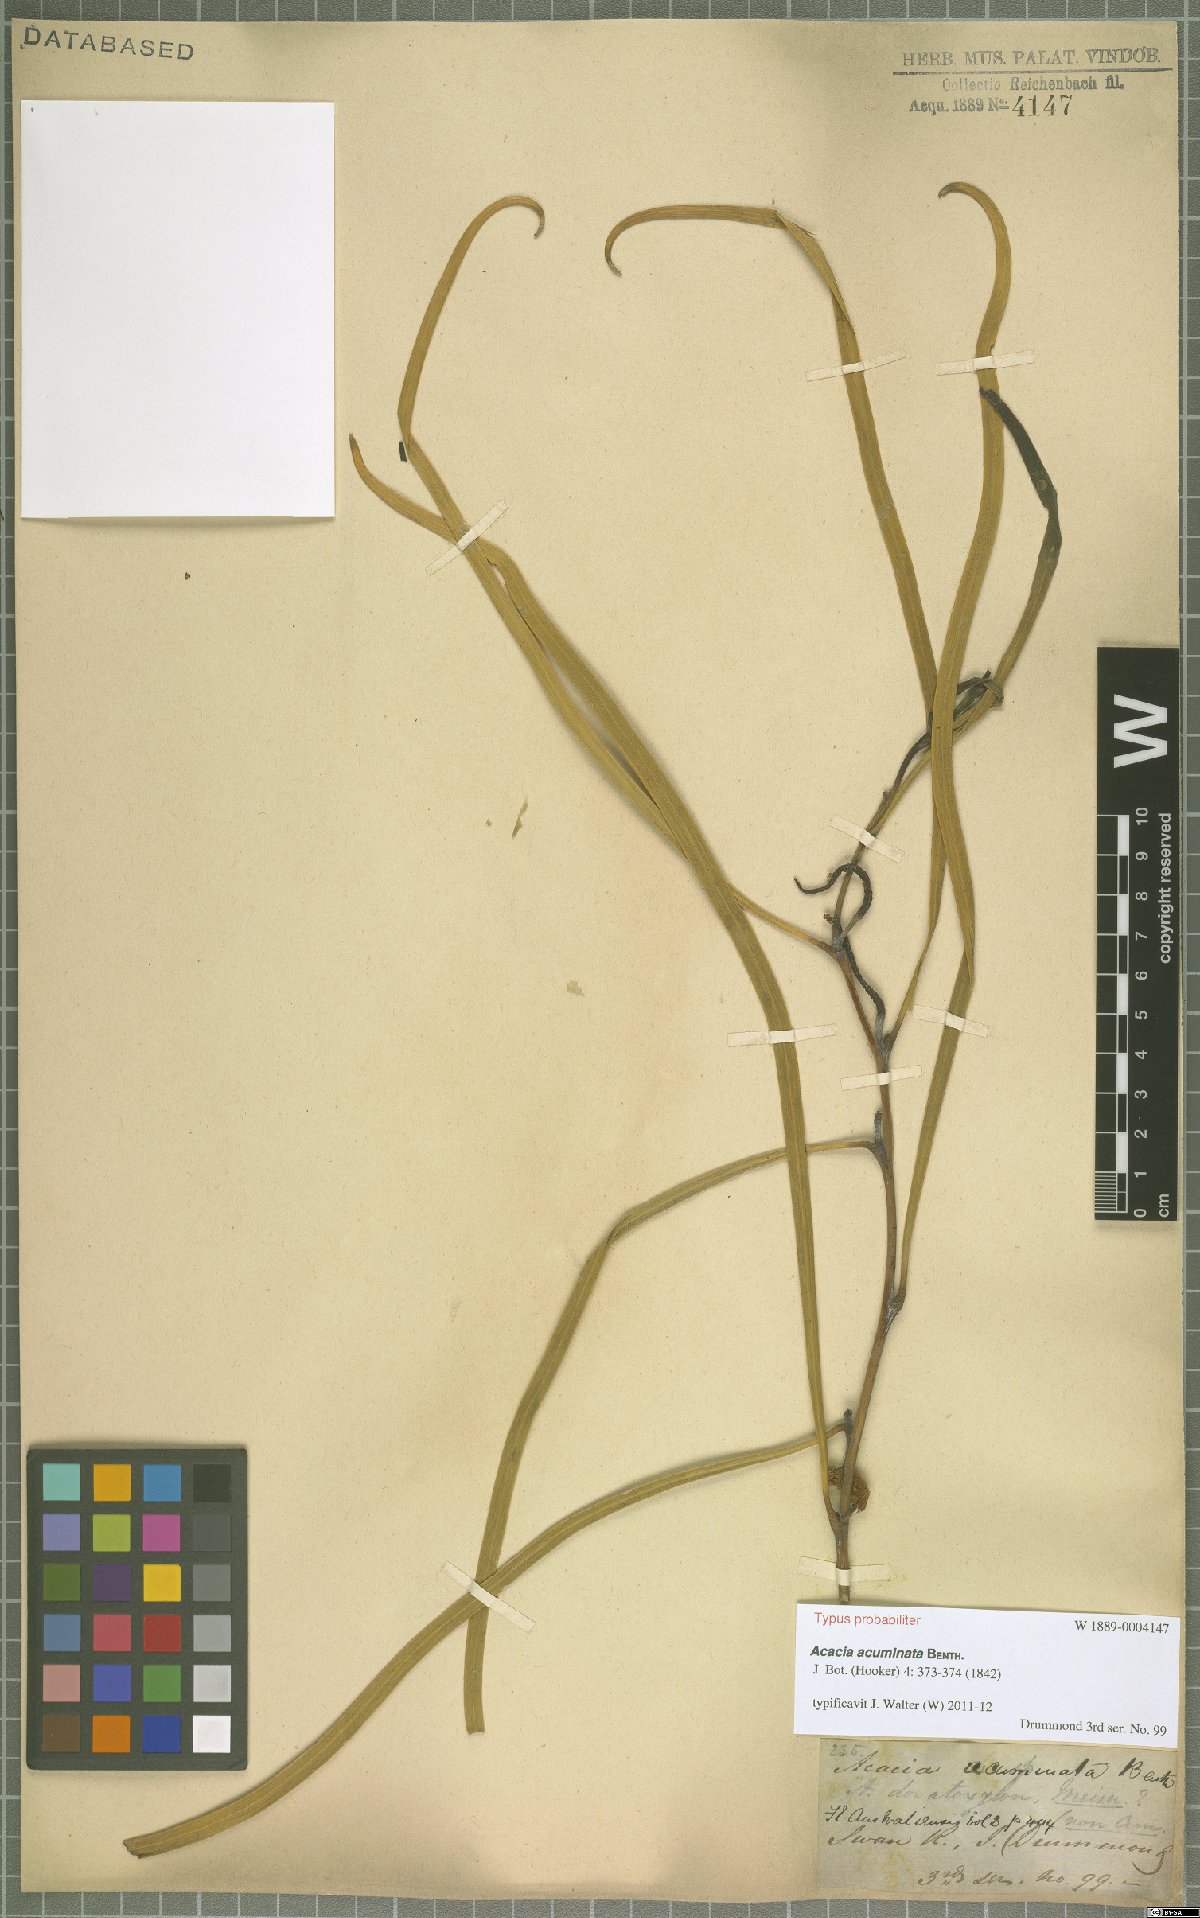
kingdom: Plantae
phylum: Tracheophyta
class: Magnoliopsida
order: Fabales
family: Fabaceae
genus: Acacia
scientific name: Acacia acuminata
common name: Jam wattle
